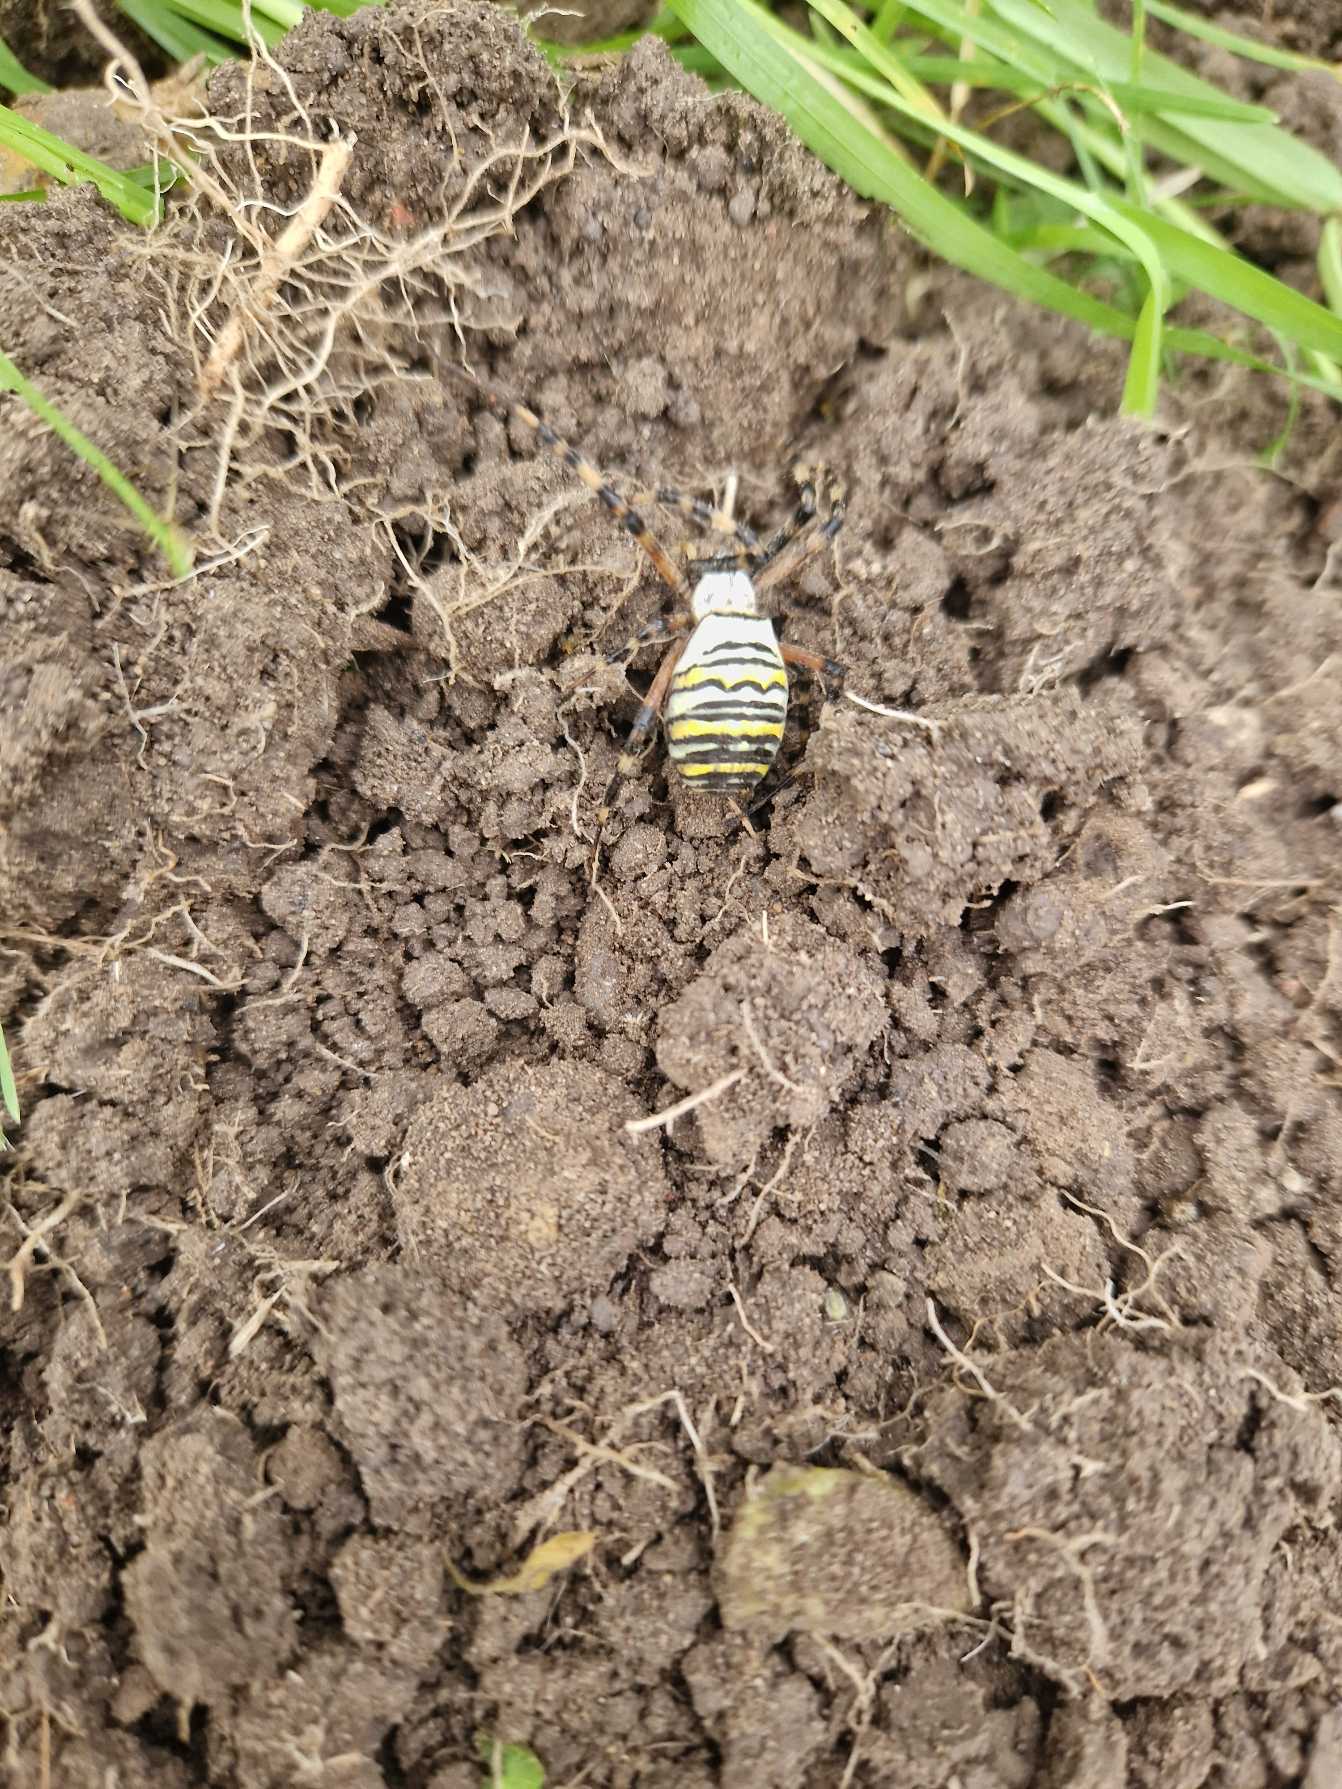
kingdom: Animalia
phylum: Arthropoda
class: Arachnida
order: Araneae
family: Araneidae
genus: Argiope
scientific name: Argiope bruennichi
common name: Hvepseedderkop
